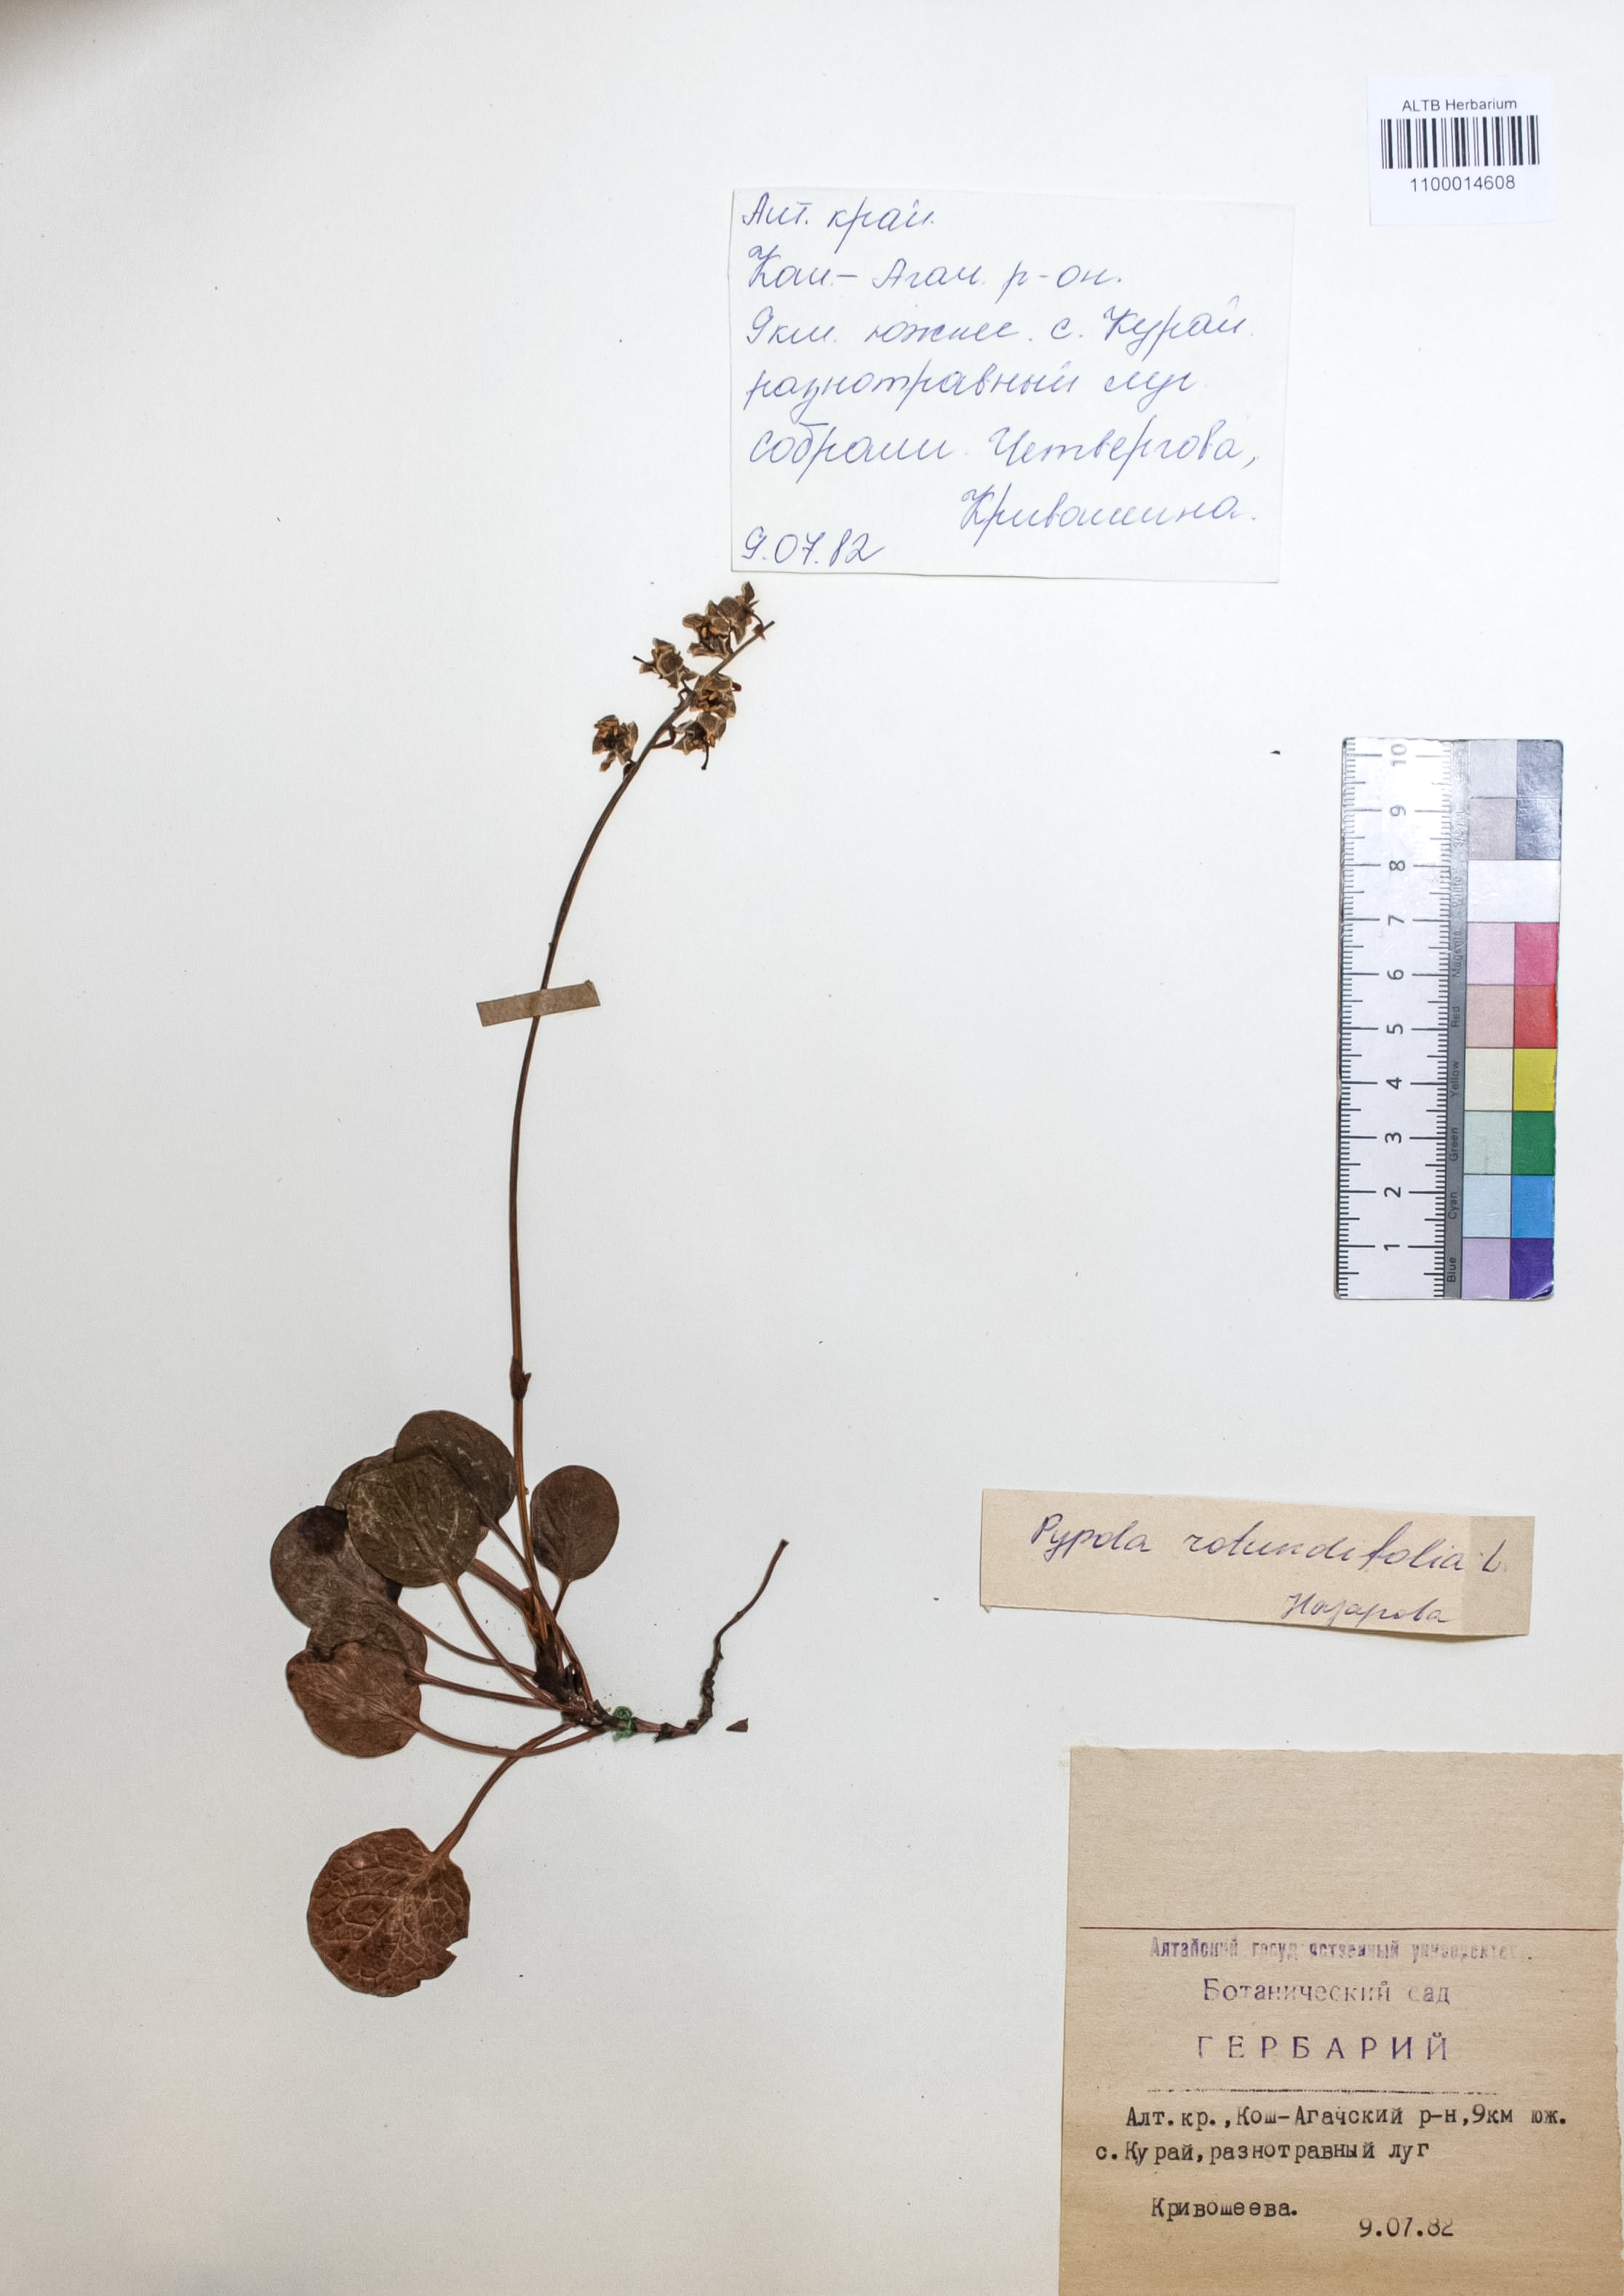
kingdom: Plantae
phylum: Tracheophyta
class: Magnoliopsida
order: Ericales
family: Ericaceae
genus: Pyrola
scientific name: Pyrola rotundifolia
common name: Round-leaved wintergreen
